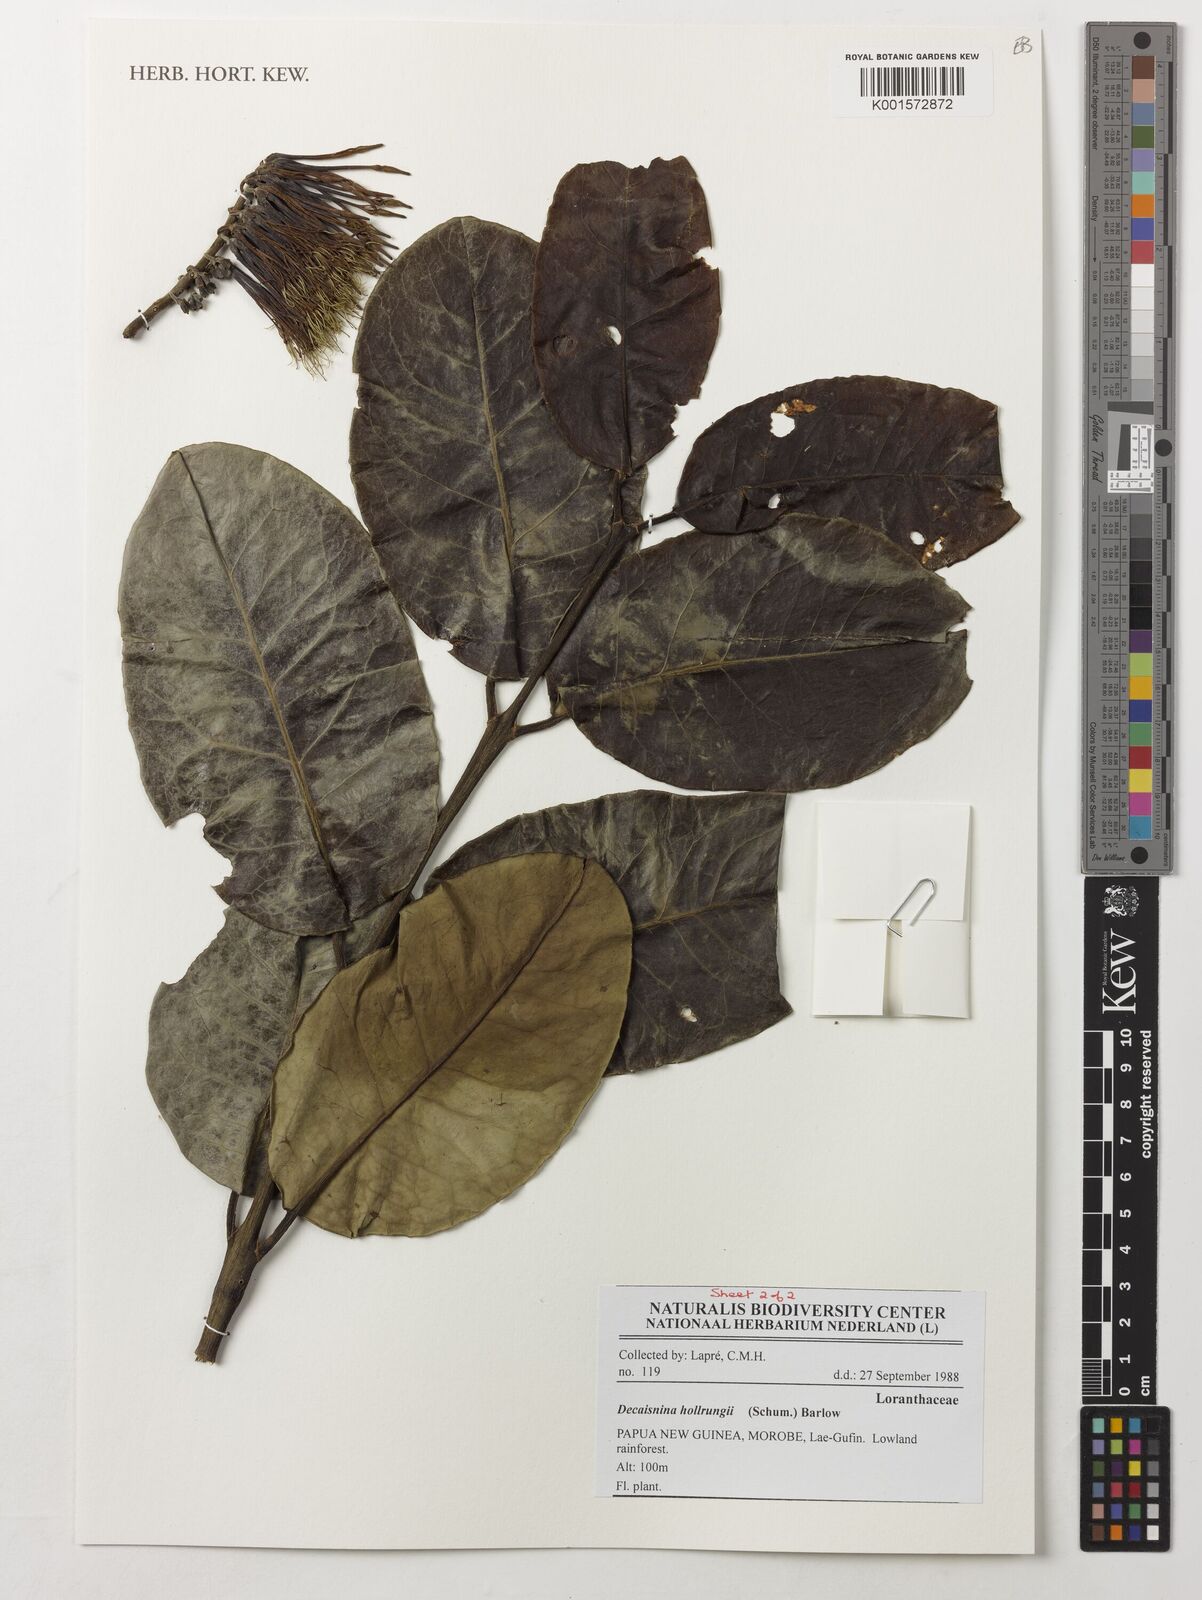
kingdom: Plantae
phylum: Tracheophyta
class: Magnoliopsida
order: Santalales
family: Loranthaceae
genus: Decaisnina
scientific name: Decaisnina hollrungii
